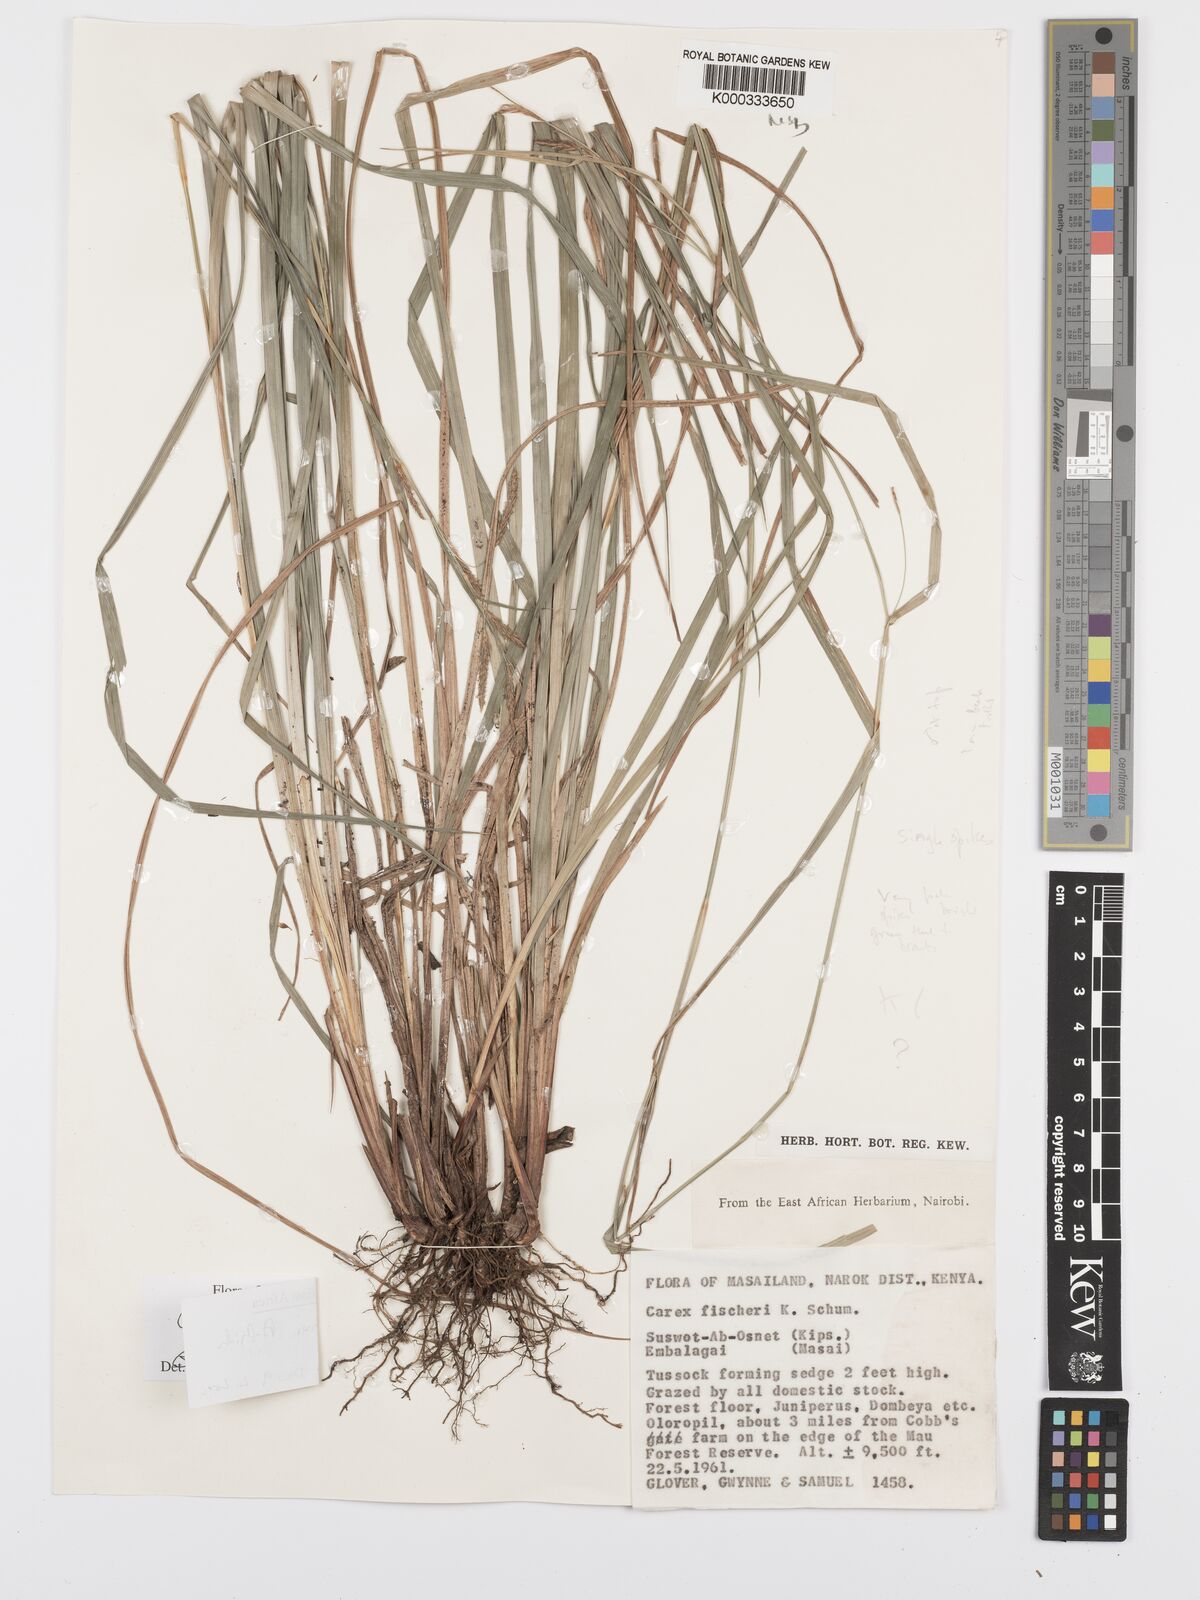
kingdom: Plantae
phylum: Tracheophyta
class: Liliopsida
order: Poales
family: Cyperaceae
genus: Carex
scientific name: Carex petitiana
